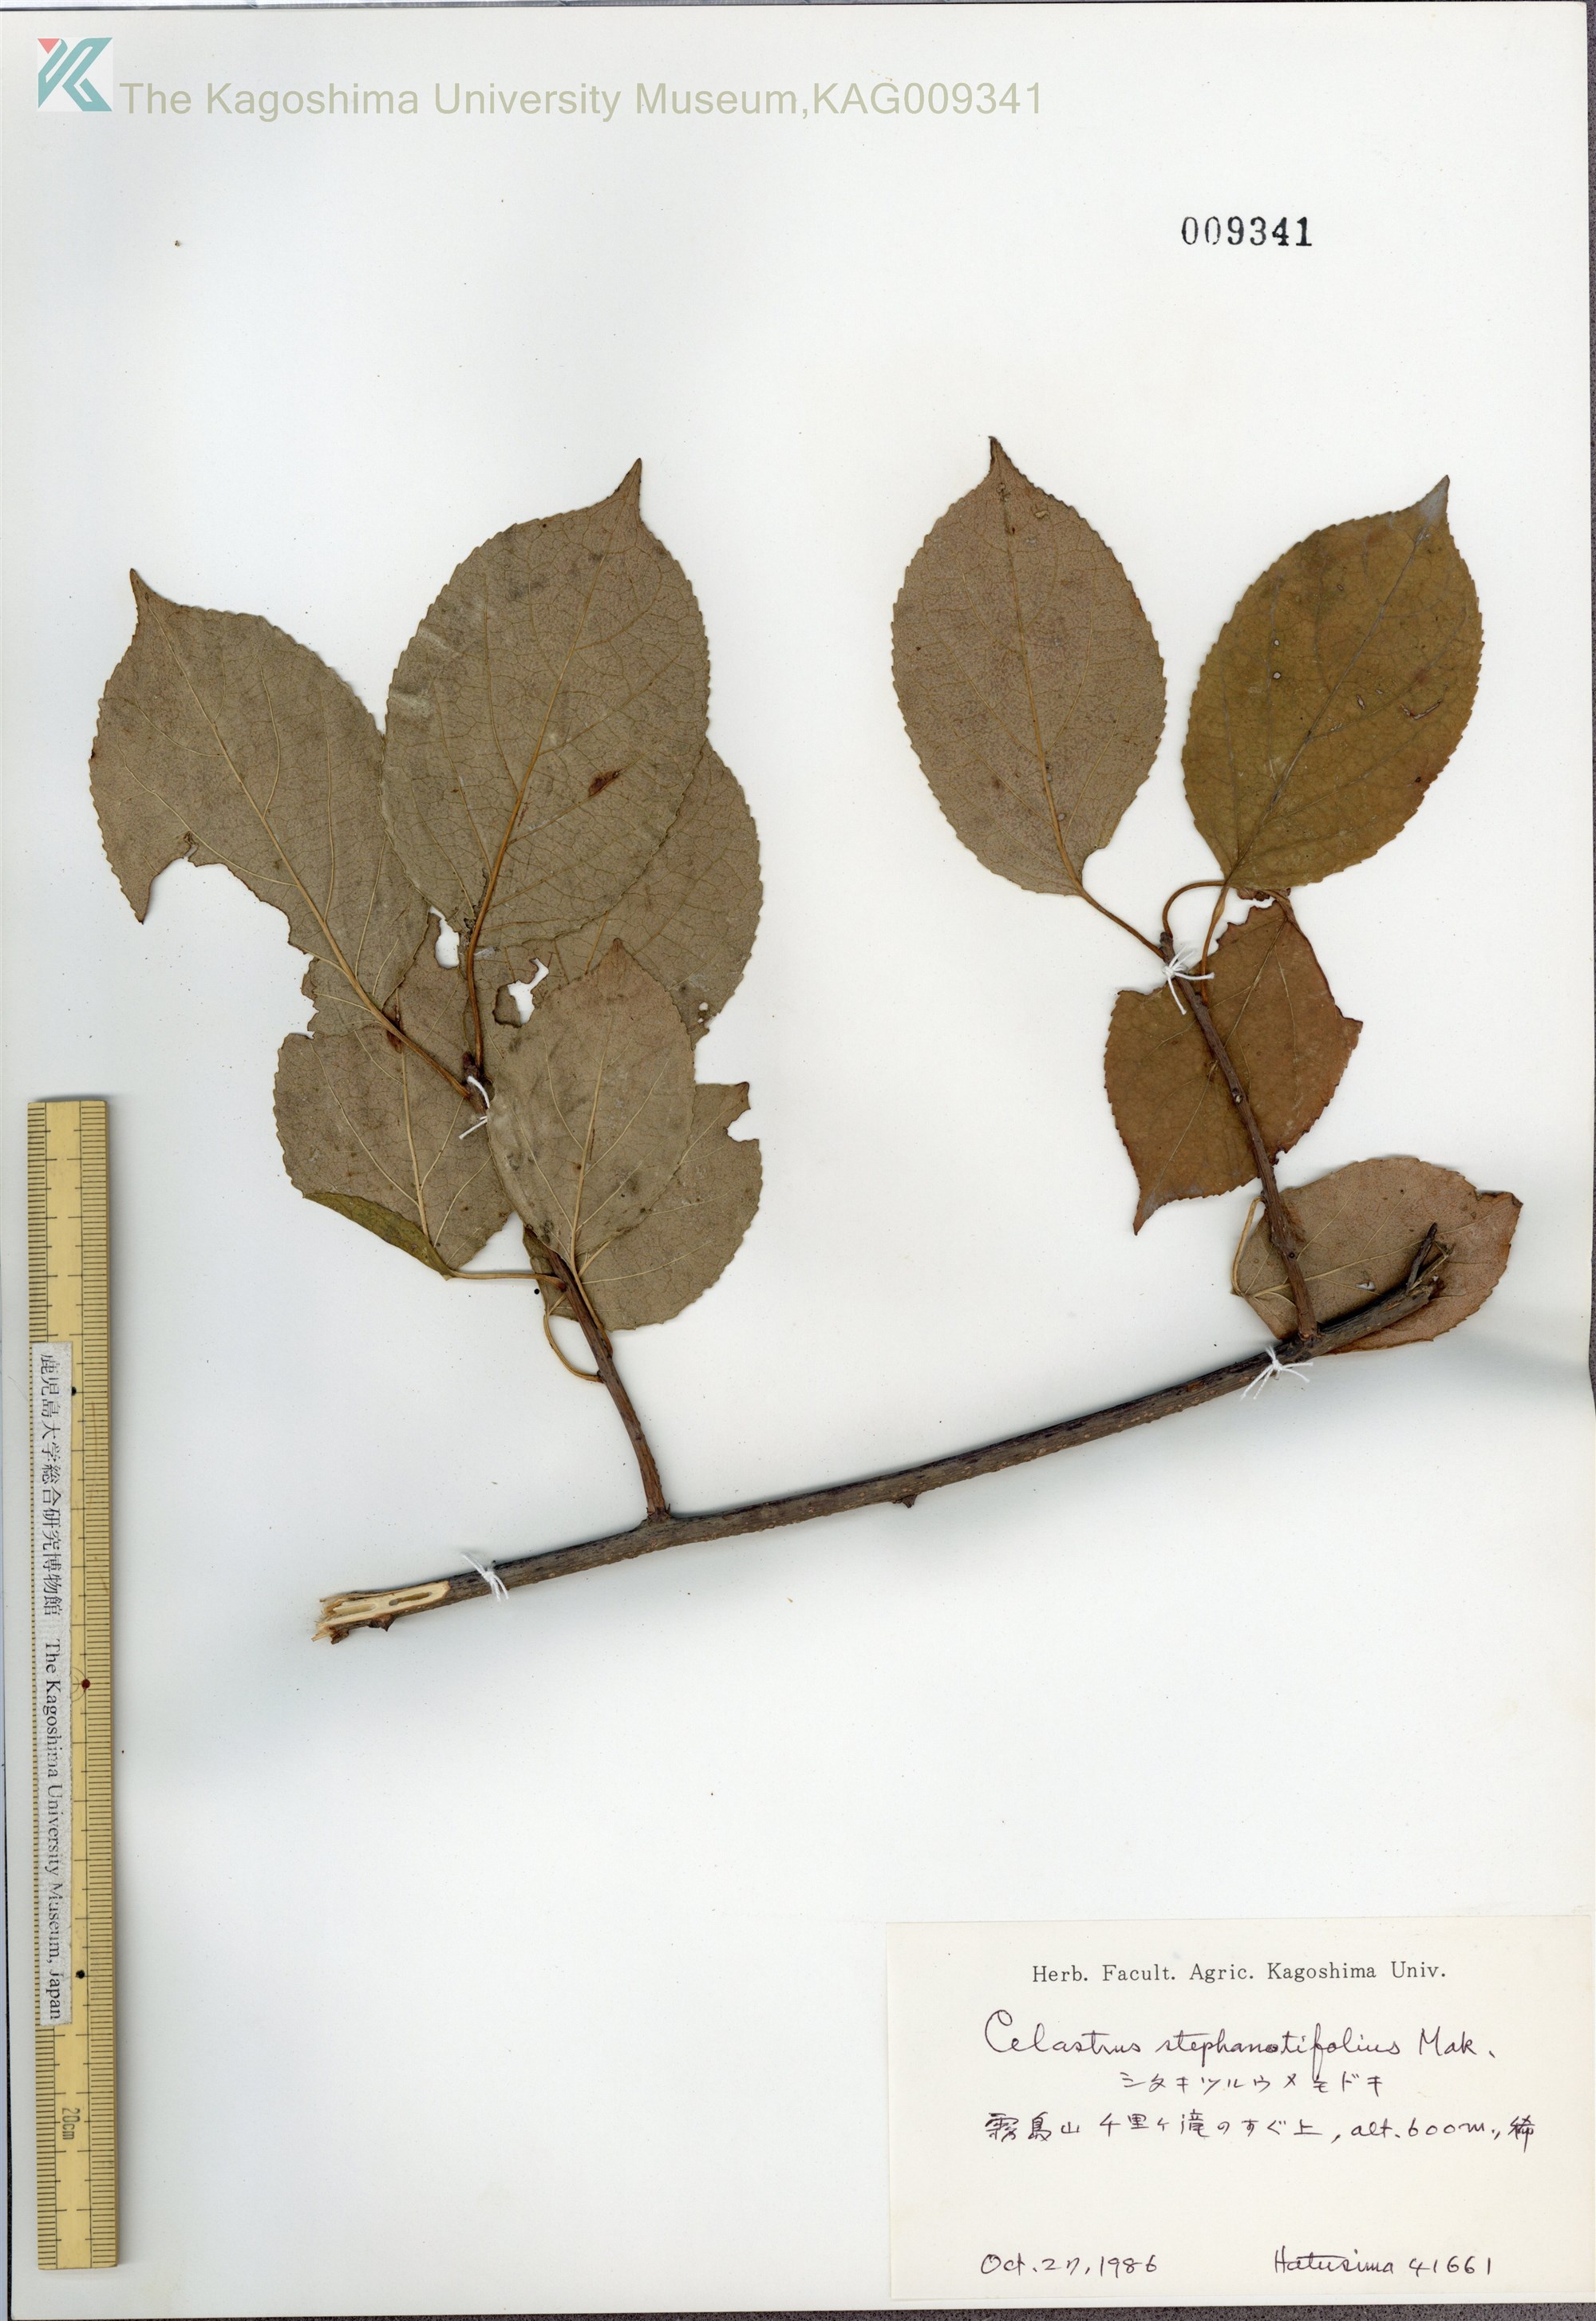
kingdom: Plantae
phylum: Tracheophyta
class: Magnoliopsida
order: Celastrales
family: Celastraceae
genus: Celastrus
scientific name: Celastrus stephanotifolius
